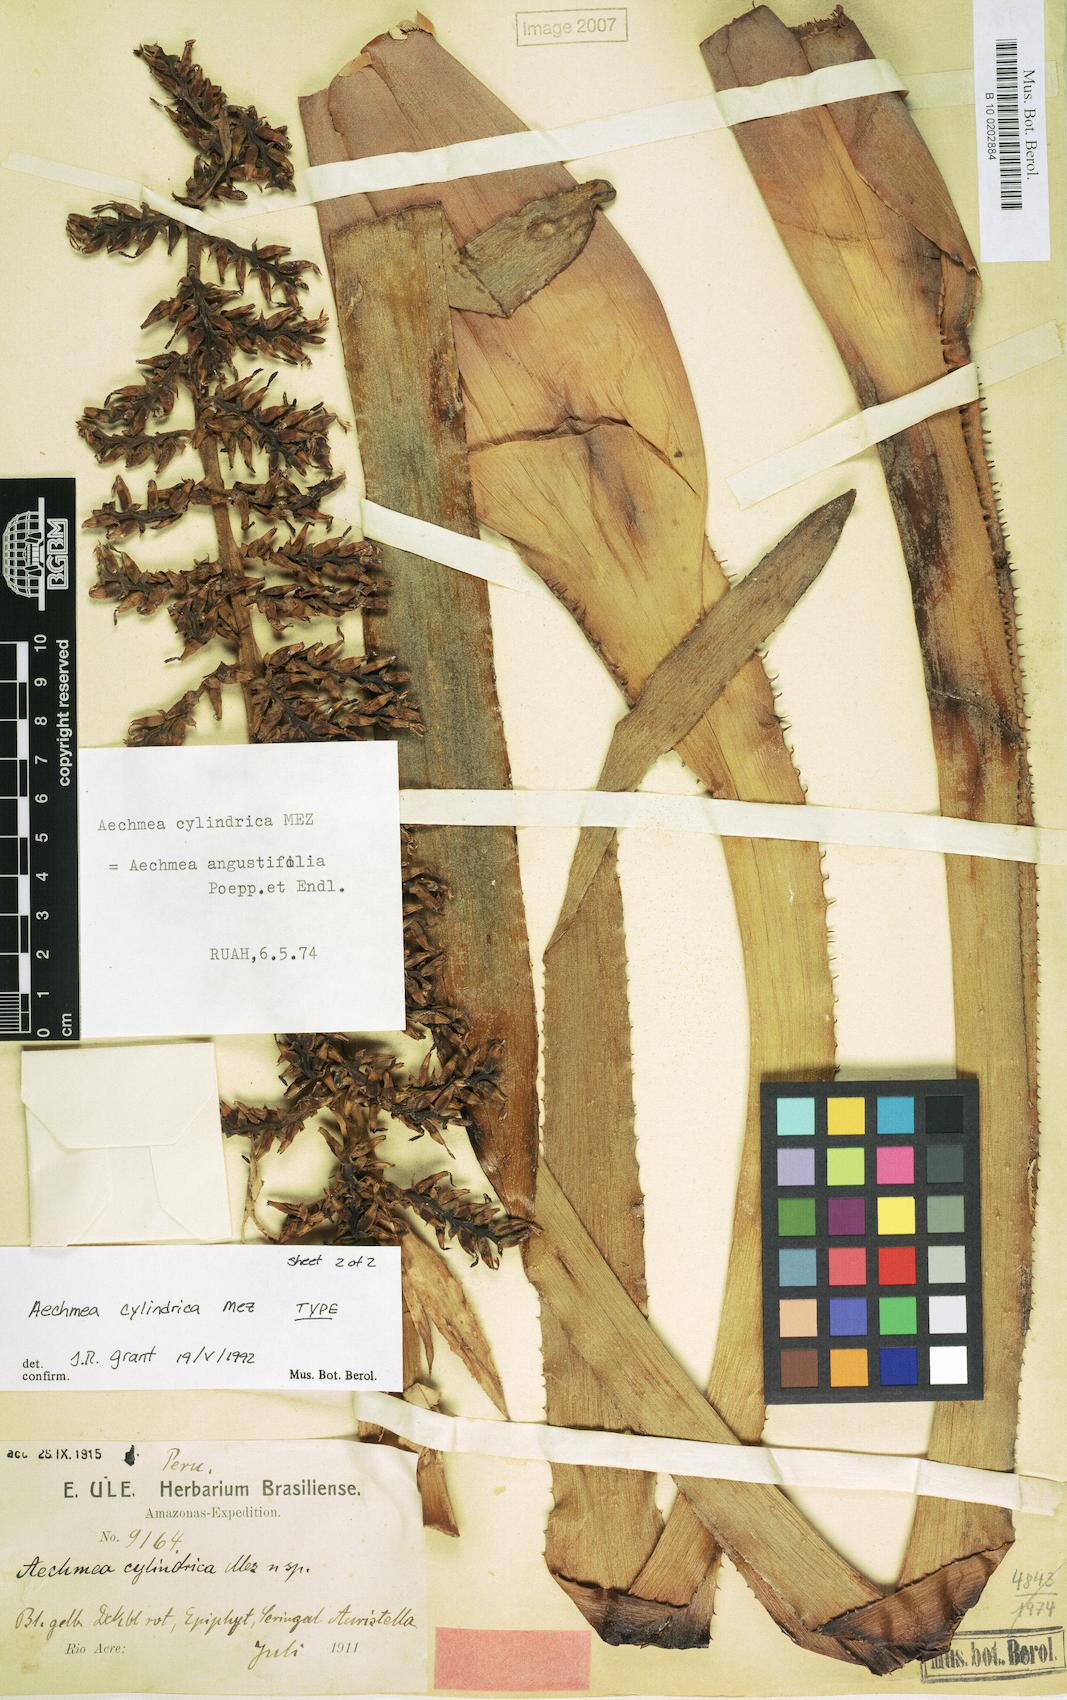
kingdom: Plantae
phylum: Tracheophyta
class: Liliopsida
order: Poales
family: Bromeliaceae
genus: Aechmea
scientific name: Aechmea angustifolia
